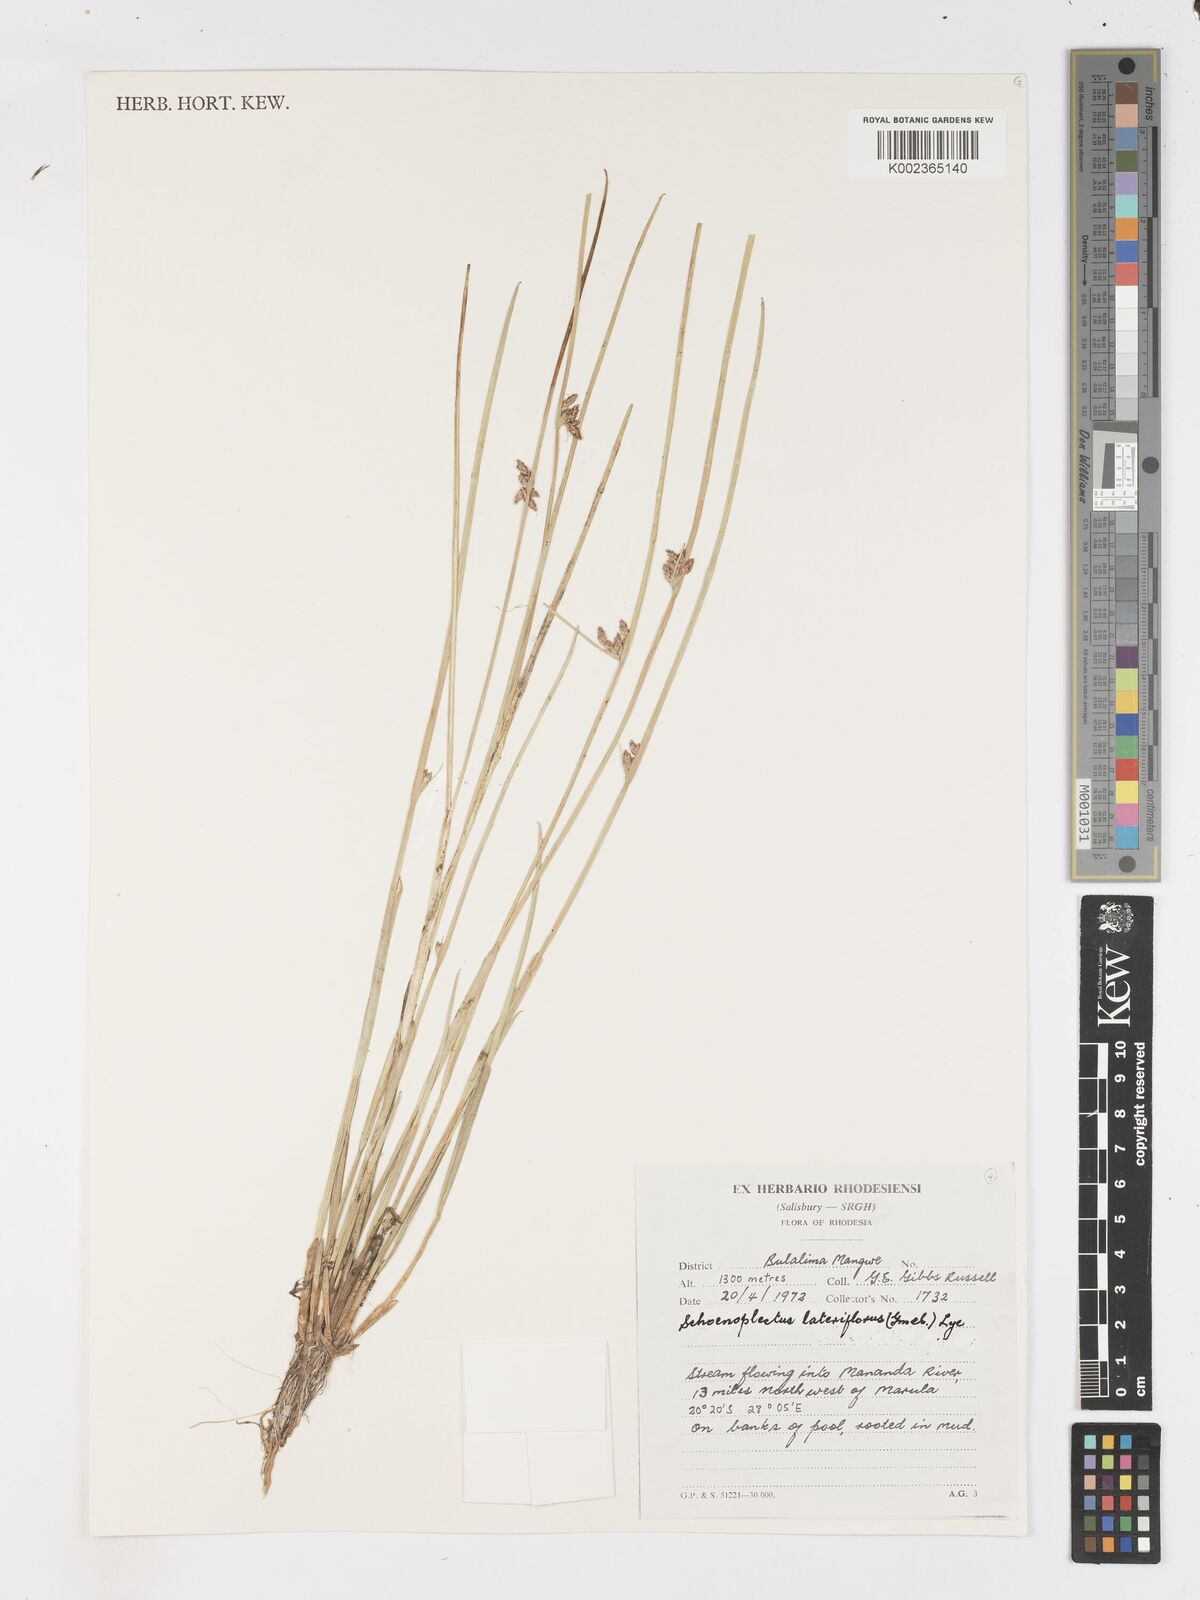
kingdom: Plantae
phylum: Tracheophyta
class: Liliopsida
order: Poales
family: Cyperaceae
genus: Schoenoplectiella
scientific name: Schoenoplectiella lateriflora
